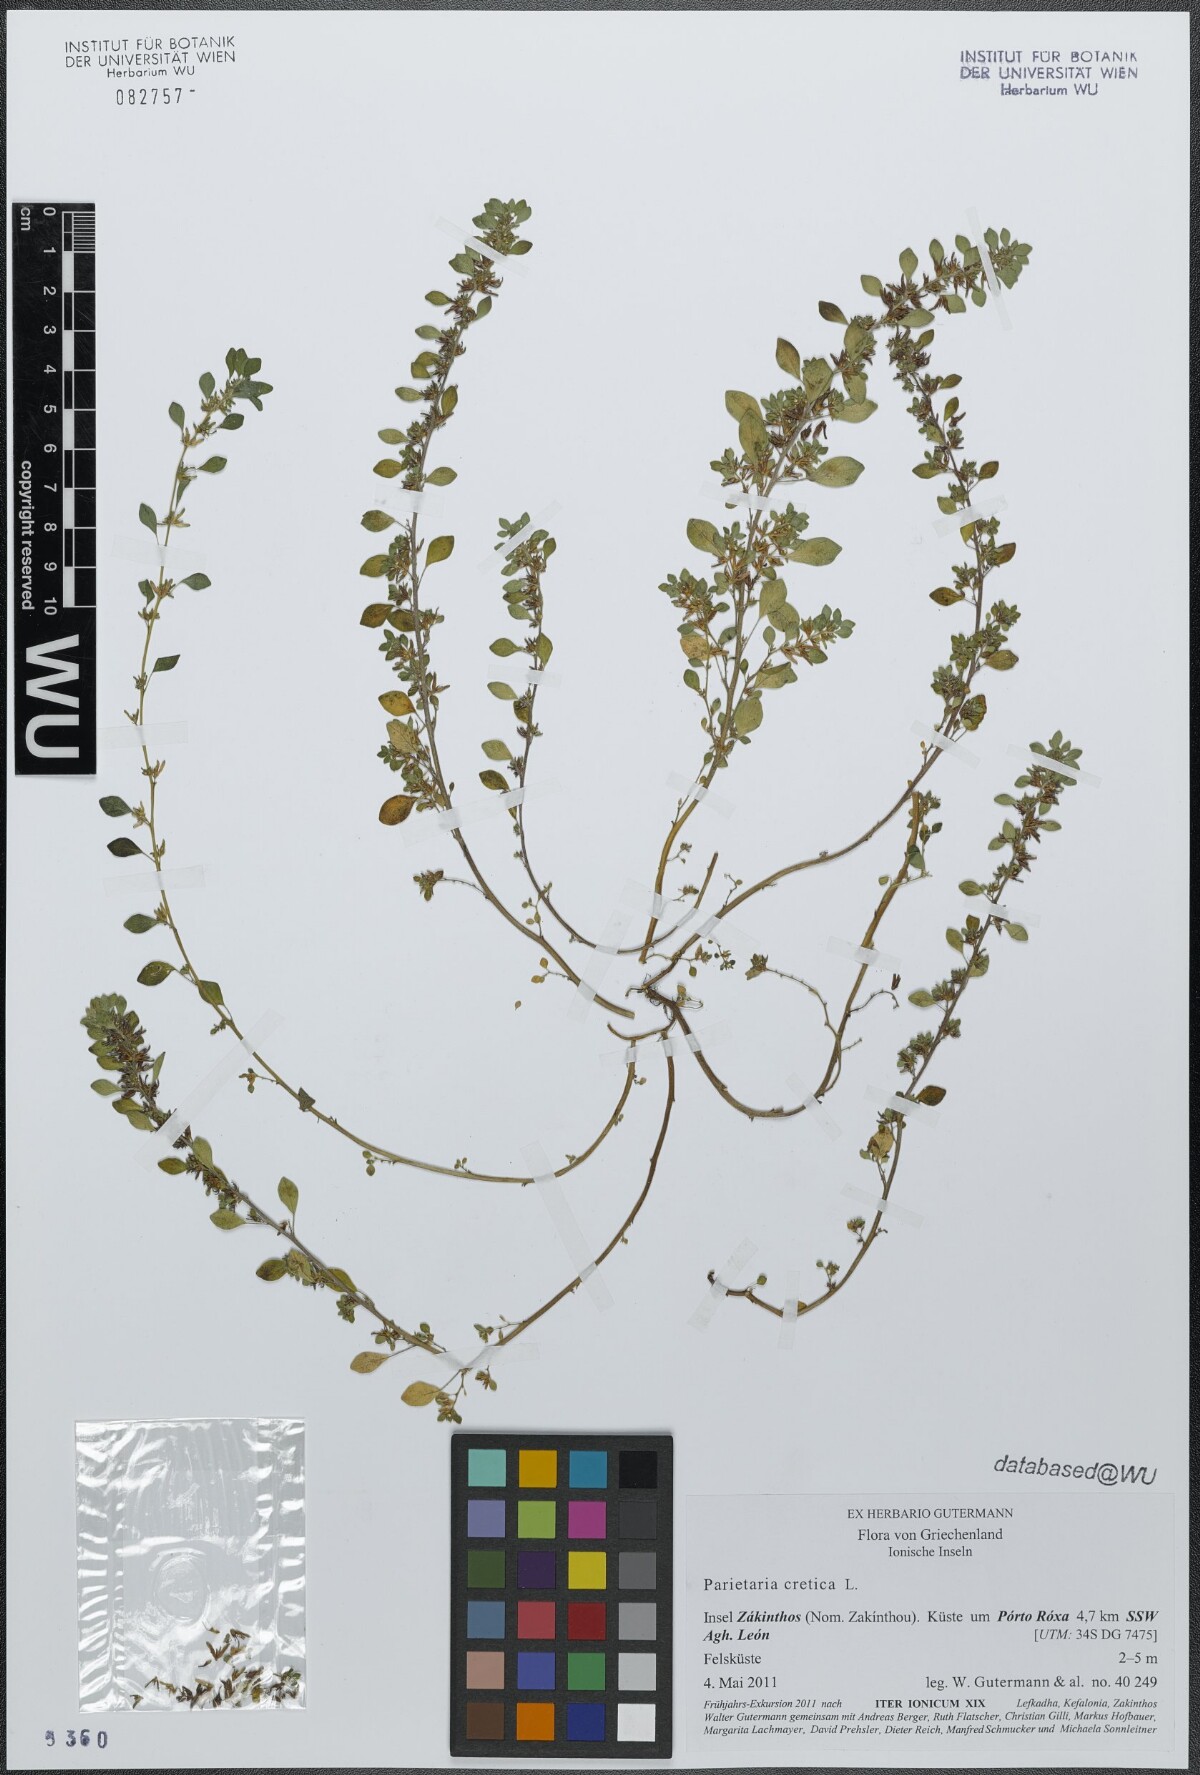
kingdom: Plantae
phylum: Tracheophyta
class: Magnoliopsida
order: Rosales
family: Urticaceae
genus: Parietaria
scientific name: Parietaria cretica
